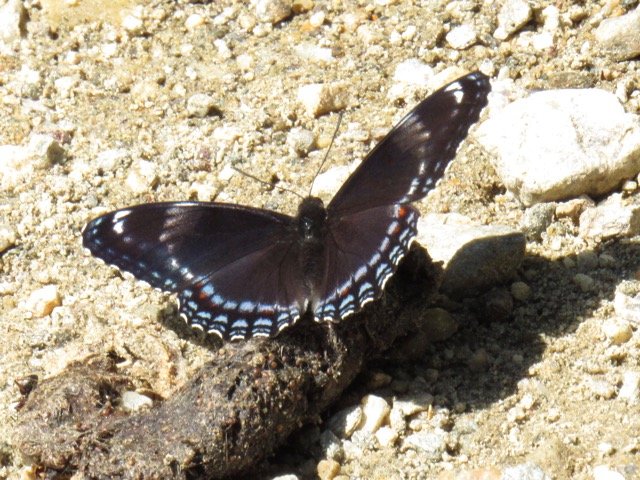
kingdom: Animalia
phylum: Arthropoda
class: Insecta
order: Lepidoptera
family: Nymphalidae
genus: Limenitis
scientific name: Limenitis
